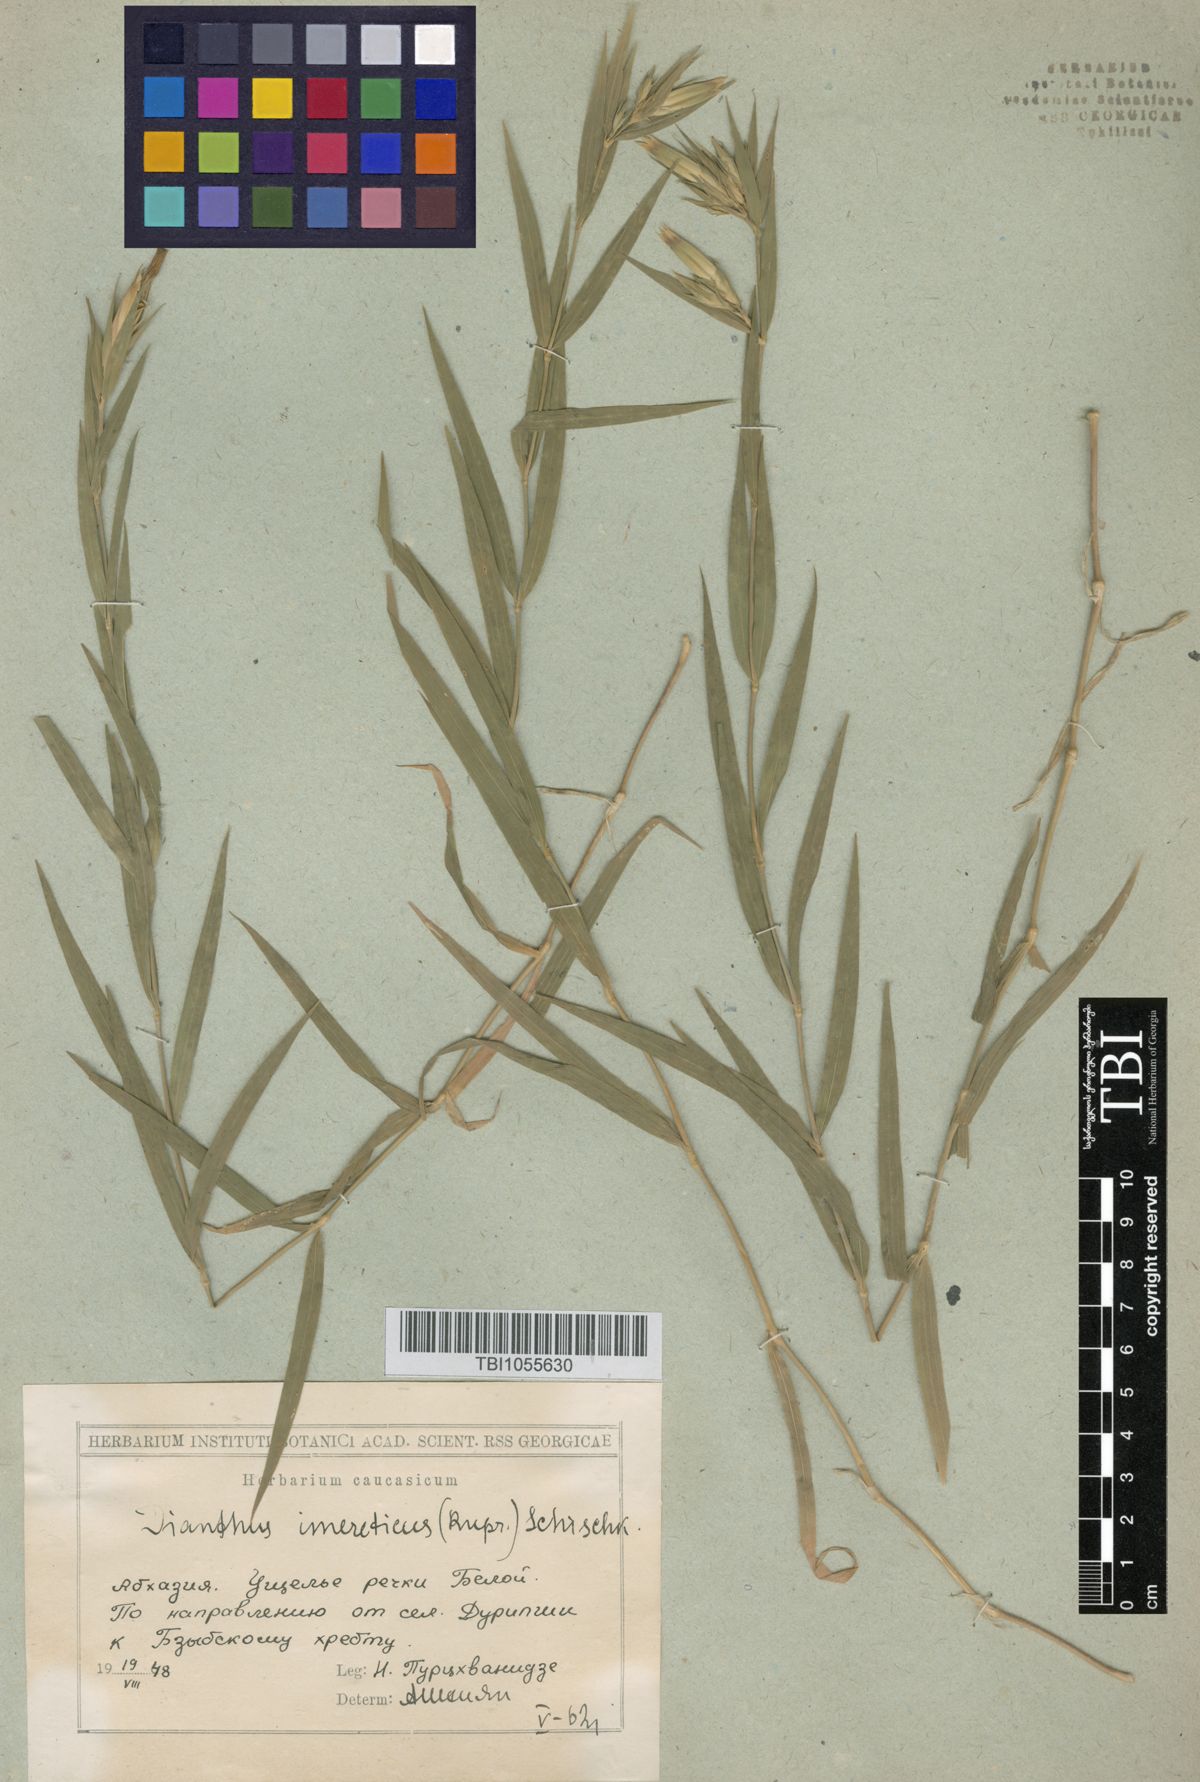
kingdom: Plantae
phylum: Tracheophyta
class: Magnoliopsida
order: Caryophyllales
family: Caryophyllaceae
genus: Dianthus
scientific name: Dianthus imereticus
